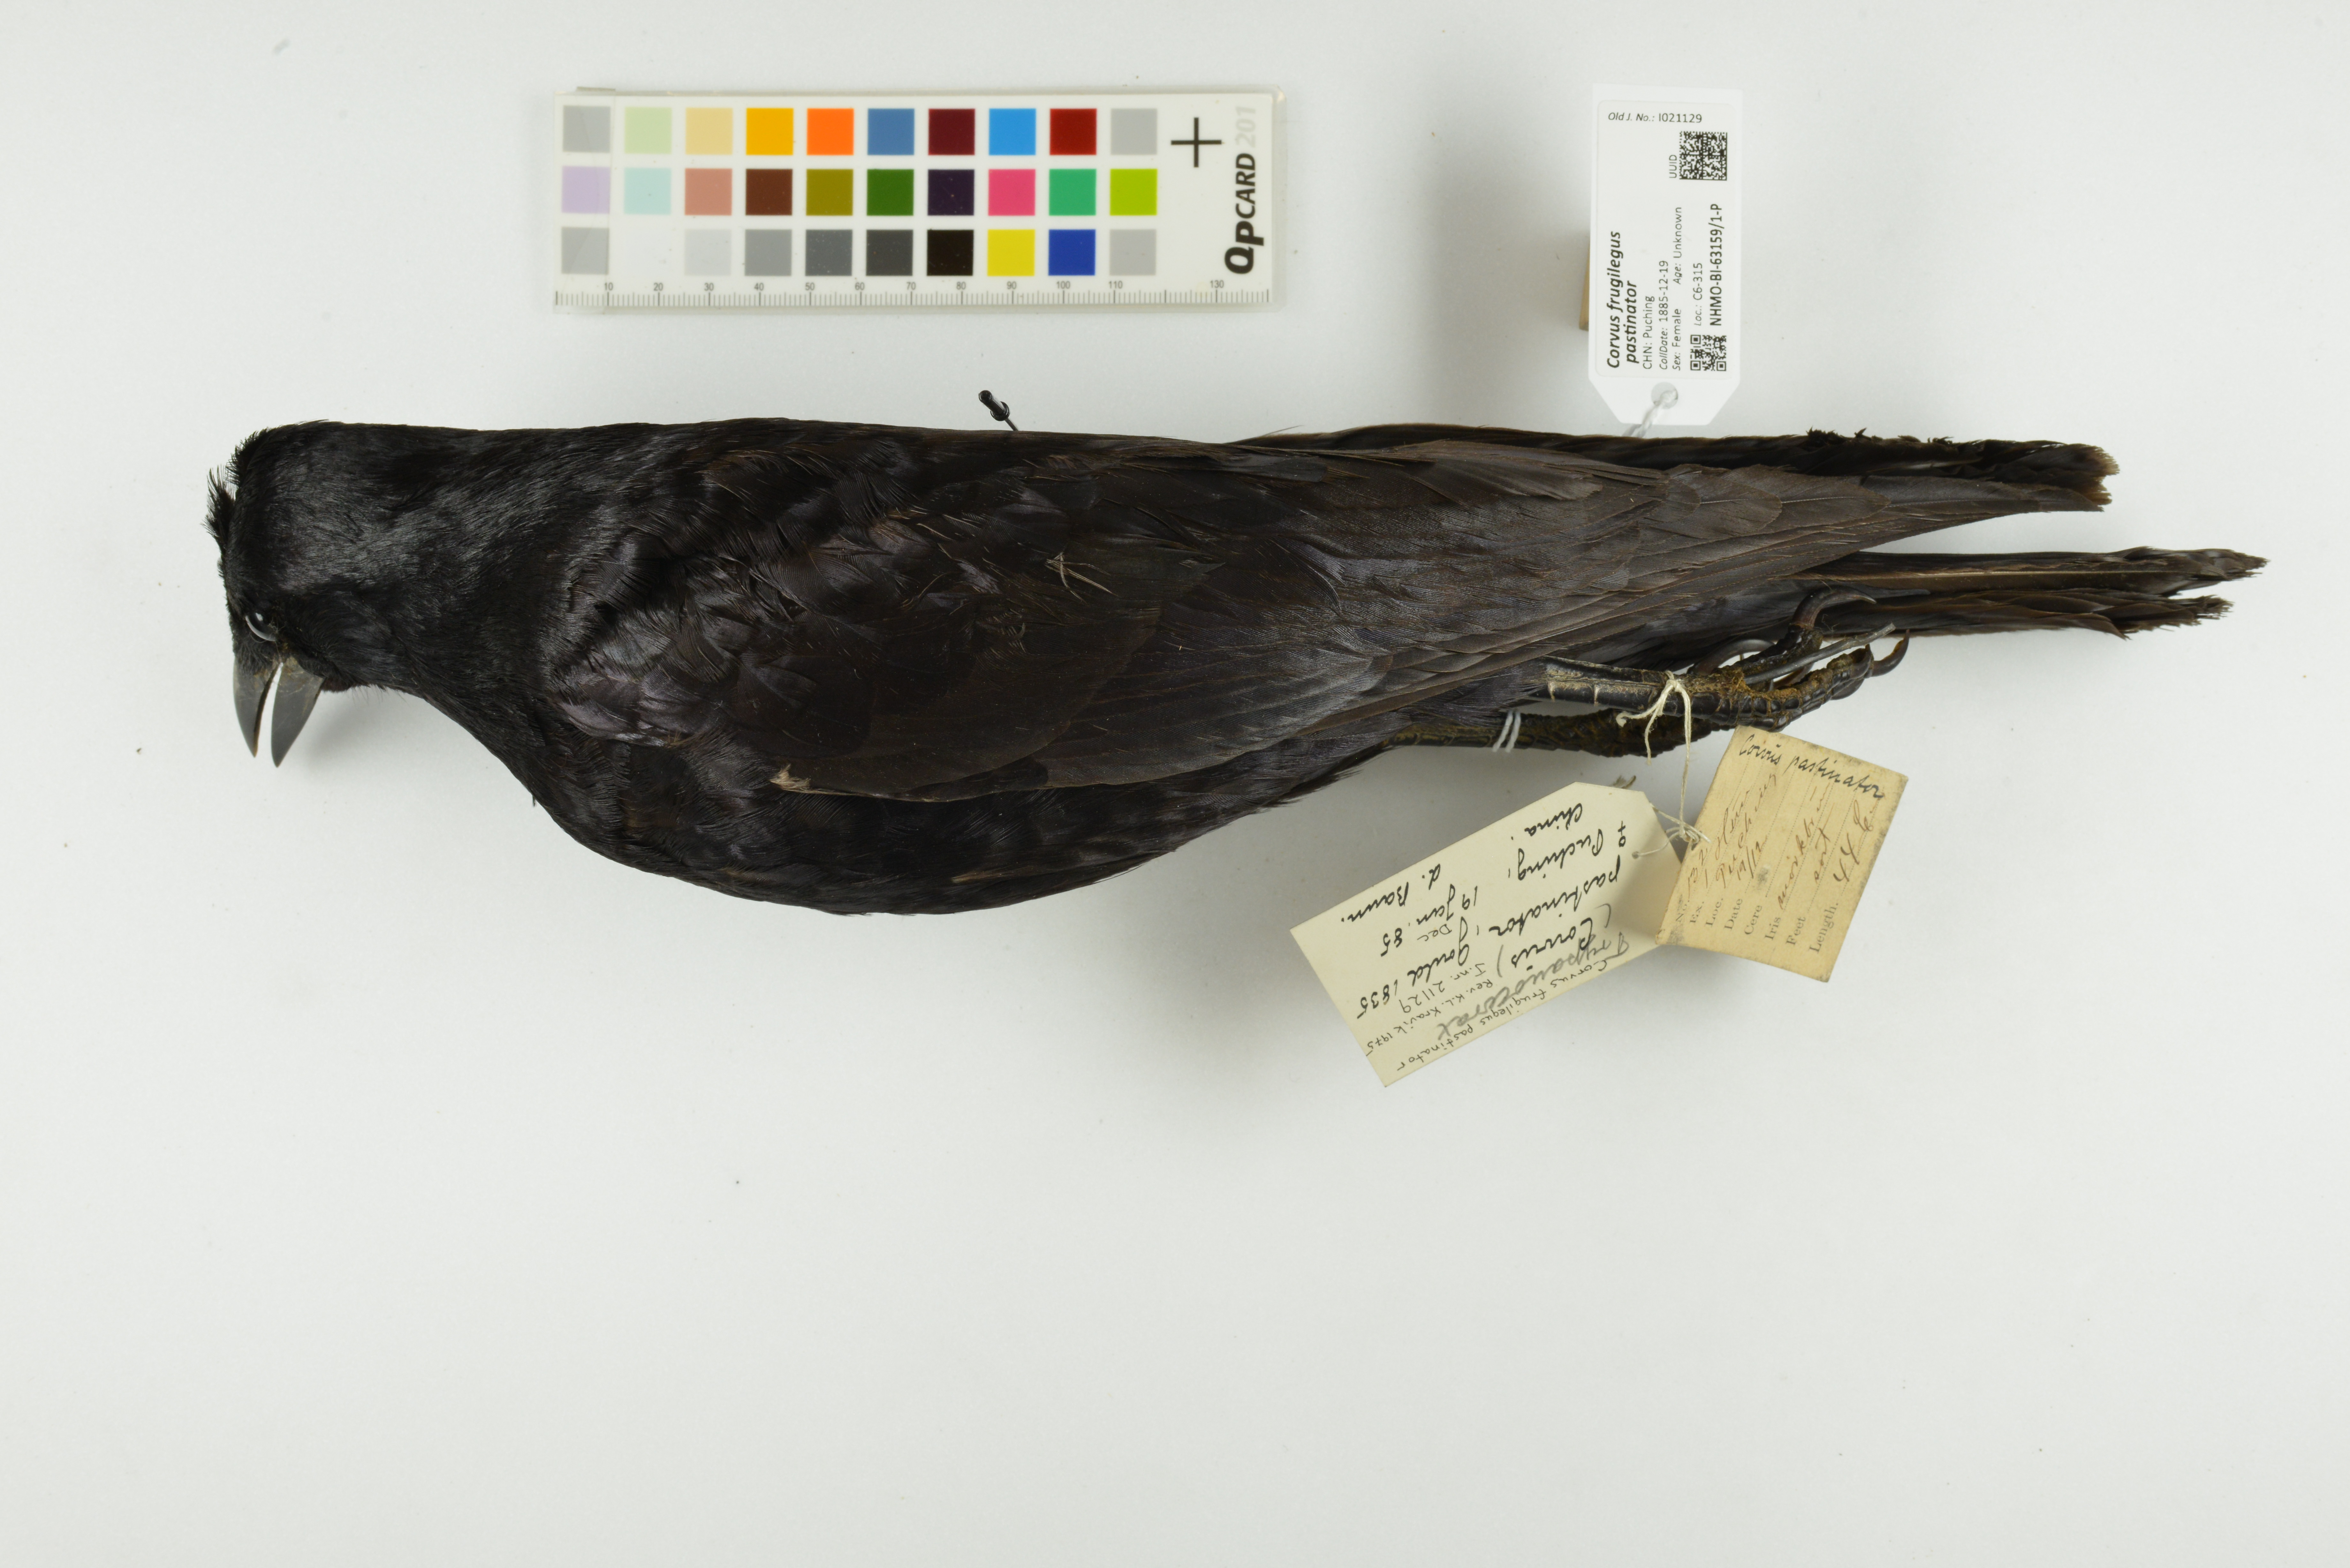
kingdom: Animalia
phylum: Chordata
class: Aves
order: Passeriformes
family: Corvidae
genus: Corvus
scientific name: Corvus frugilegus
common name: Rook
